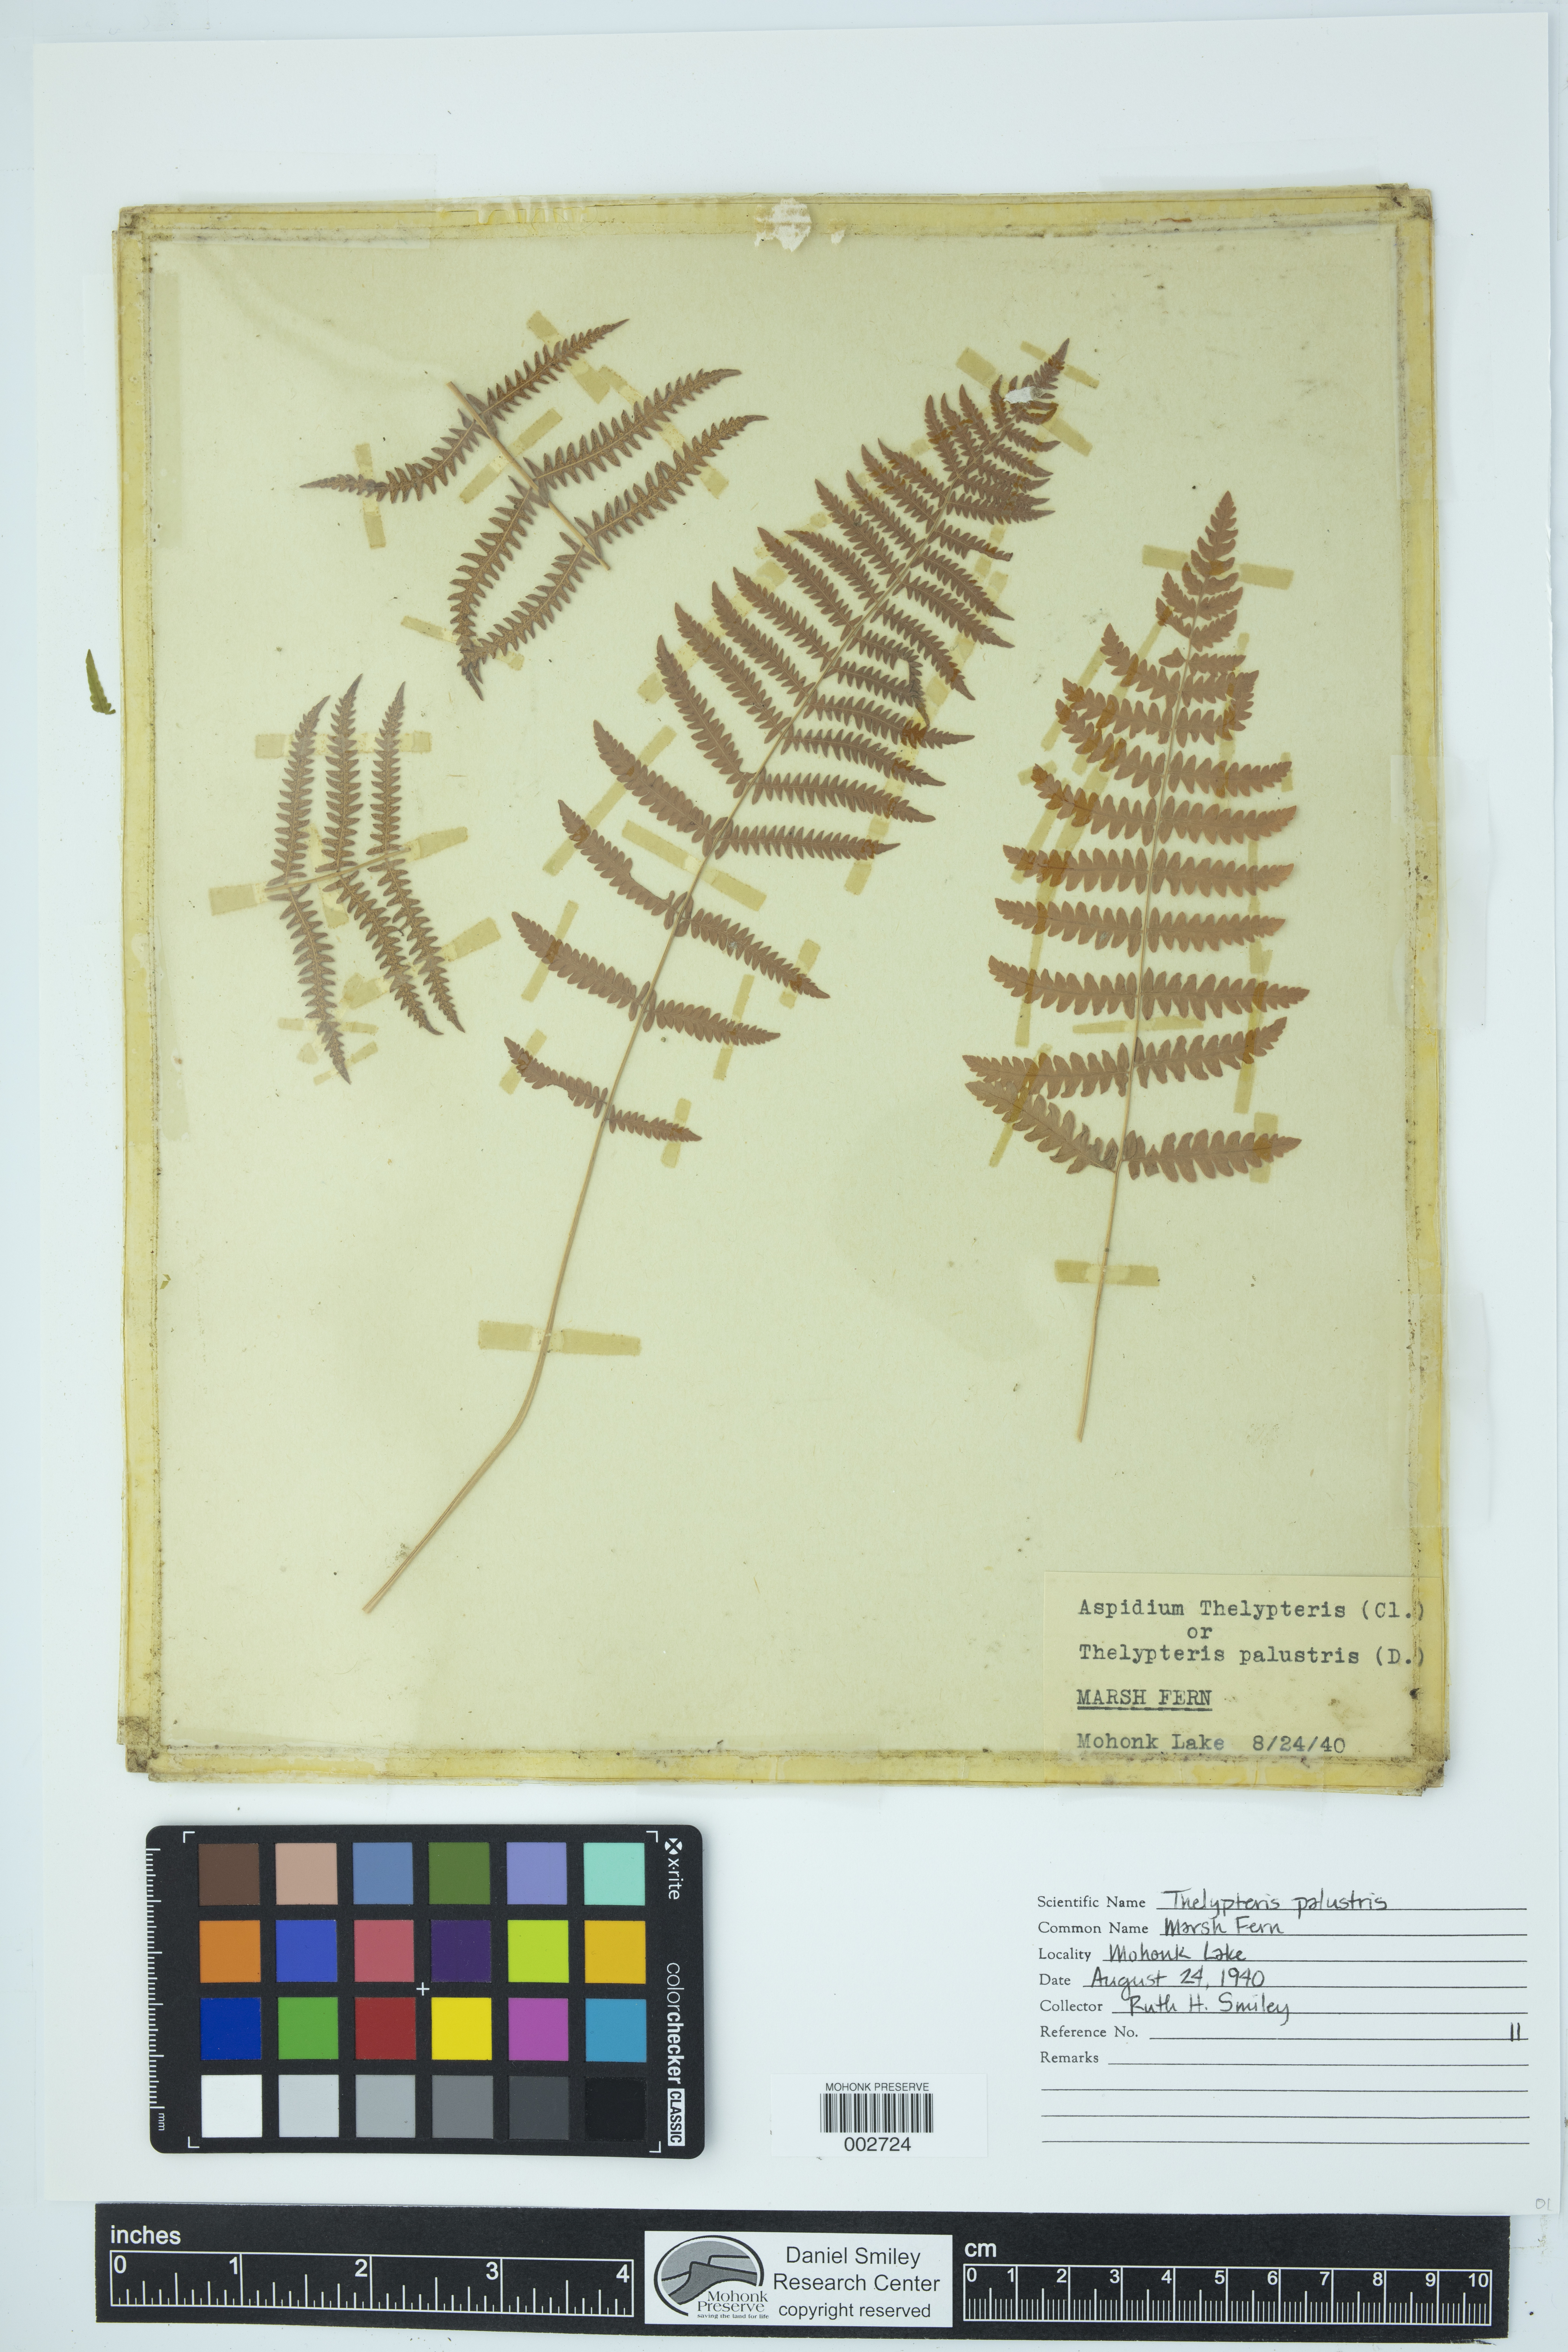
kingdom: Plantae
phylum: Tracheophyta
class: Polypodiopsida
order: Polypodiales
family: Thelypteridaceae
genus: Thelypteris
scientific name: Thelypteris confluens
